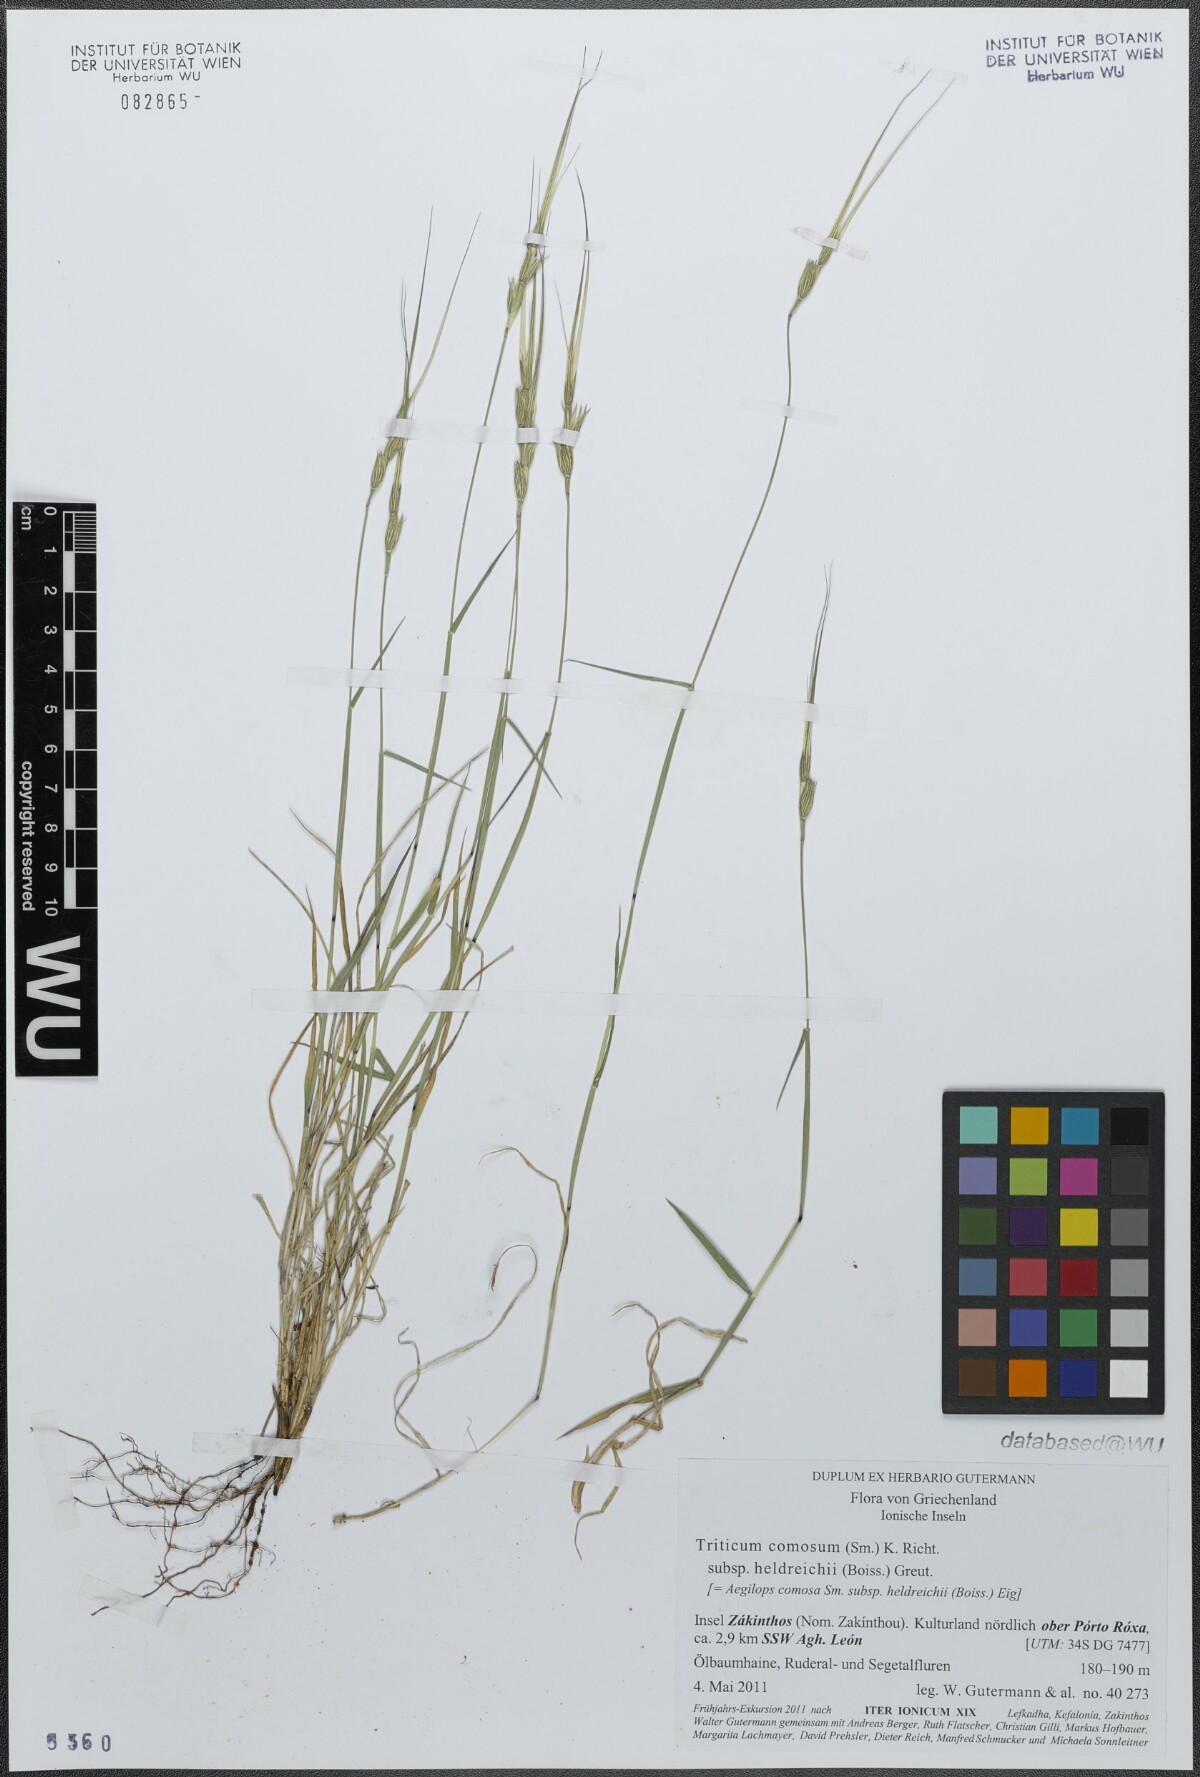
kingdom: Plantae
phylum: Tracheophyta
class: Liliopsida
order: Poales
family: Poaceae
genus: Aegilops
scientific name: Aegilops comosa
